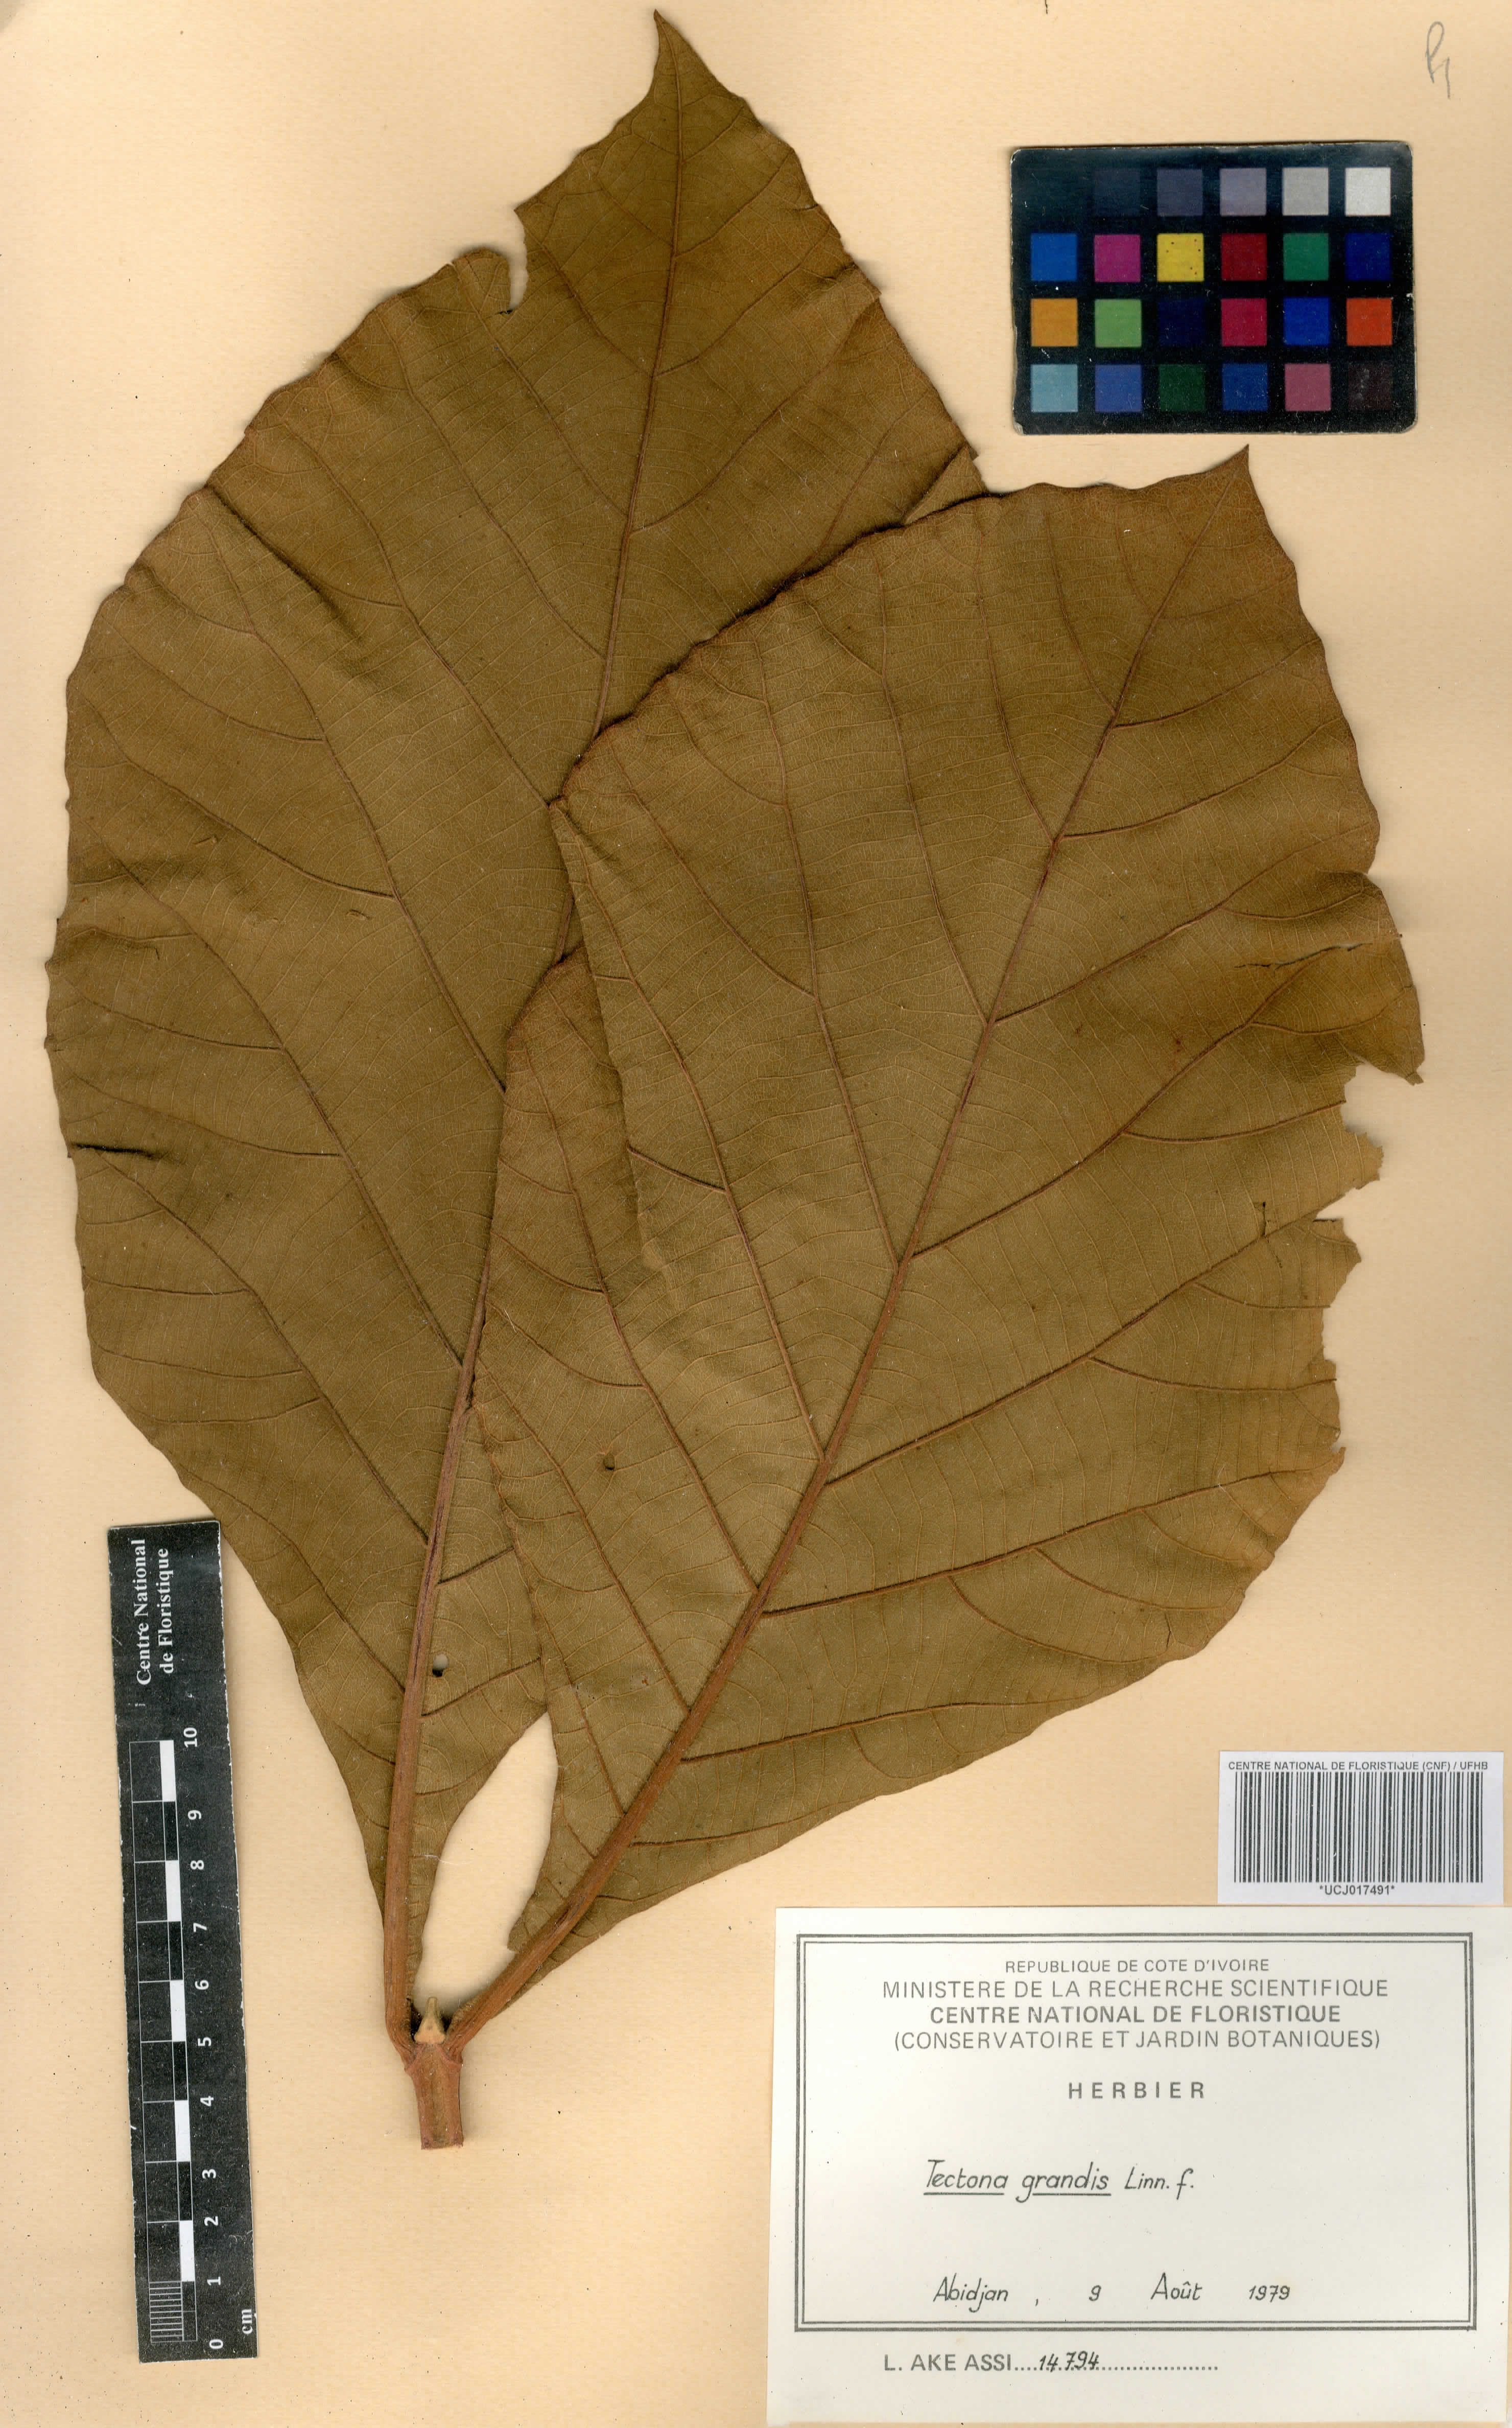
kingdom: Plantae
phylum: Tracheophyta
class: Magnoliopsida
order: Lamiales
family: Lamiaceae
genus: Tectona
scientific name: Tectona grandis
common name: Teak
